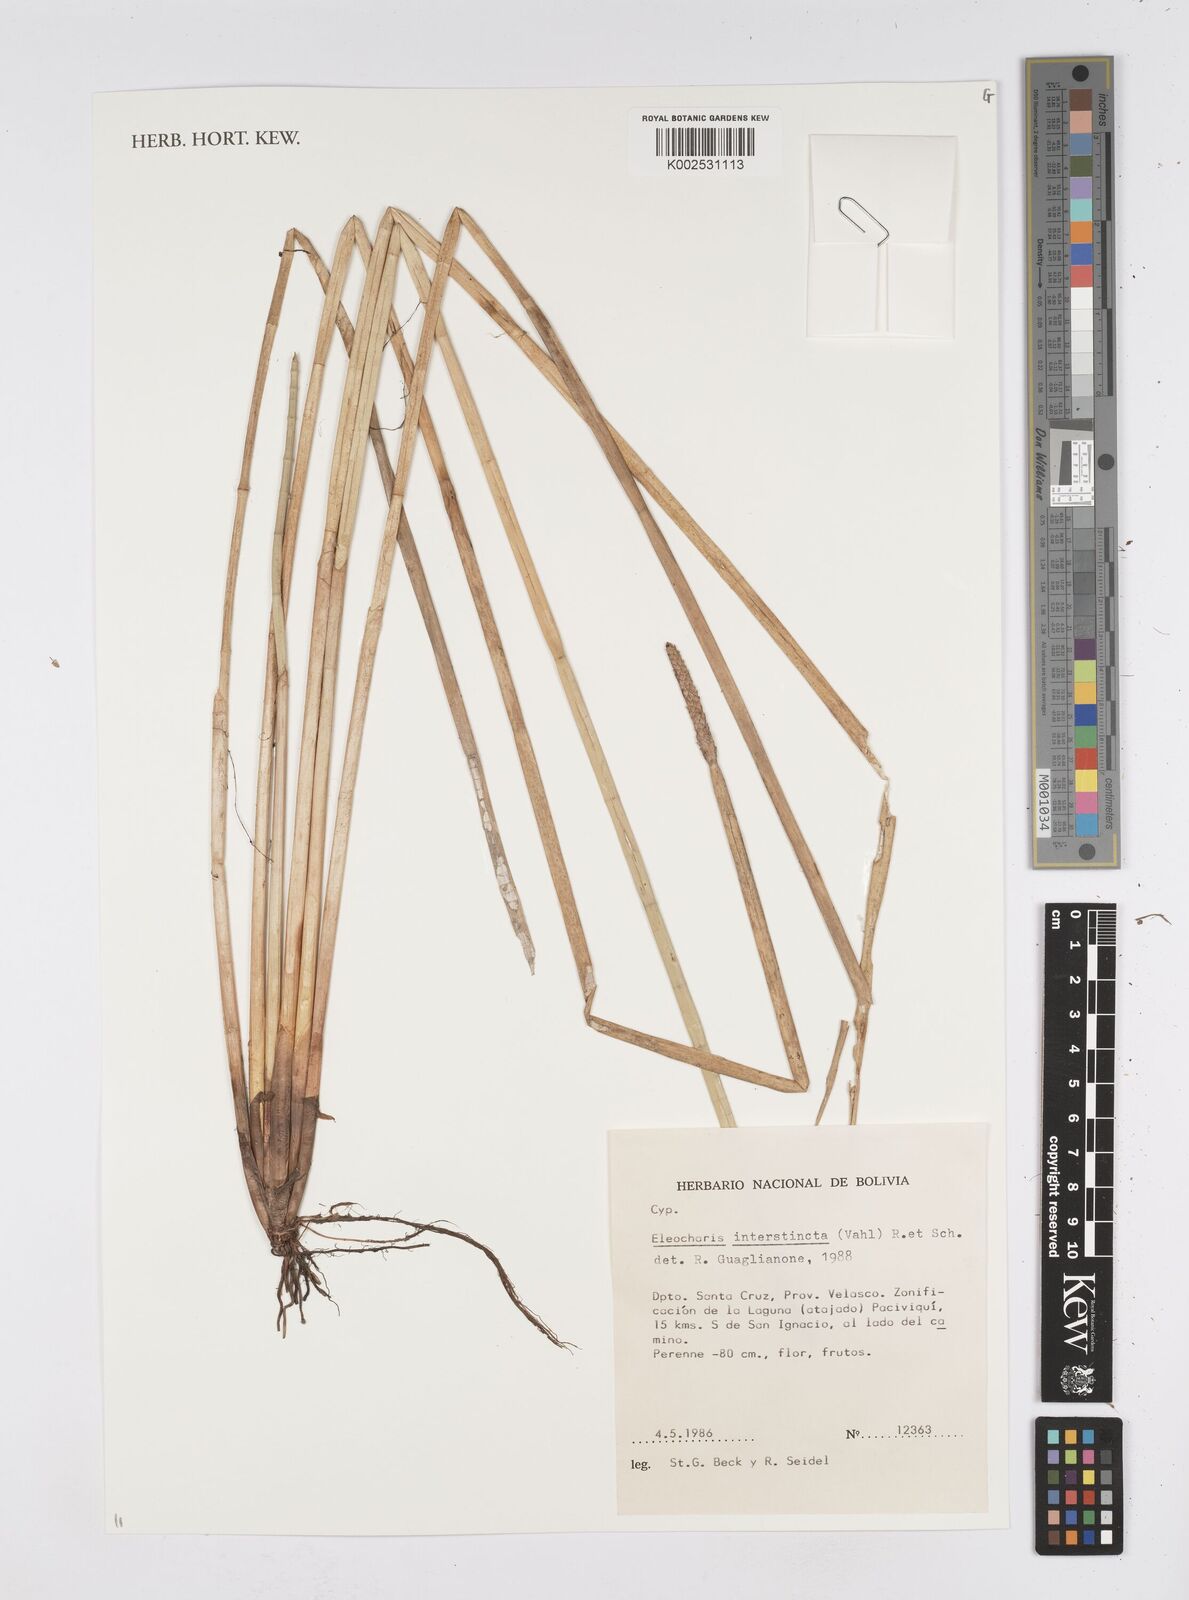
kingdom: Plantae
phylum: Tracheophyta
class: Liliopsida
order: Poales
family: Cyperaceae
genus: Eleocharis
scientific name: Eleocharis interstincta
